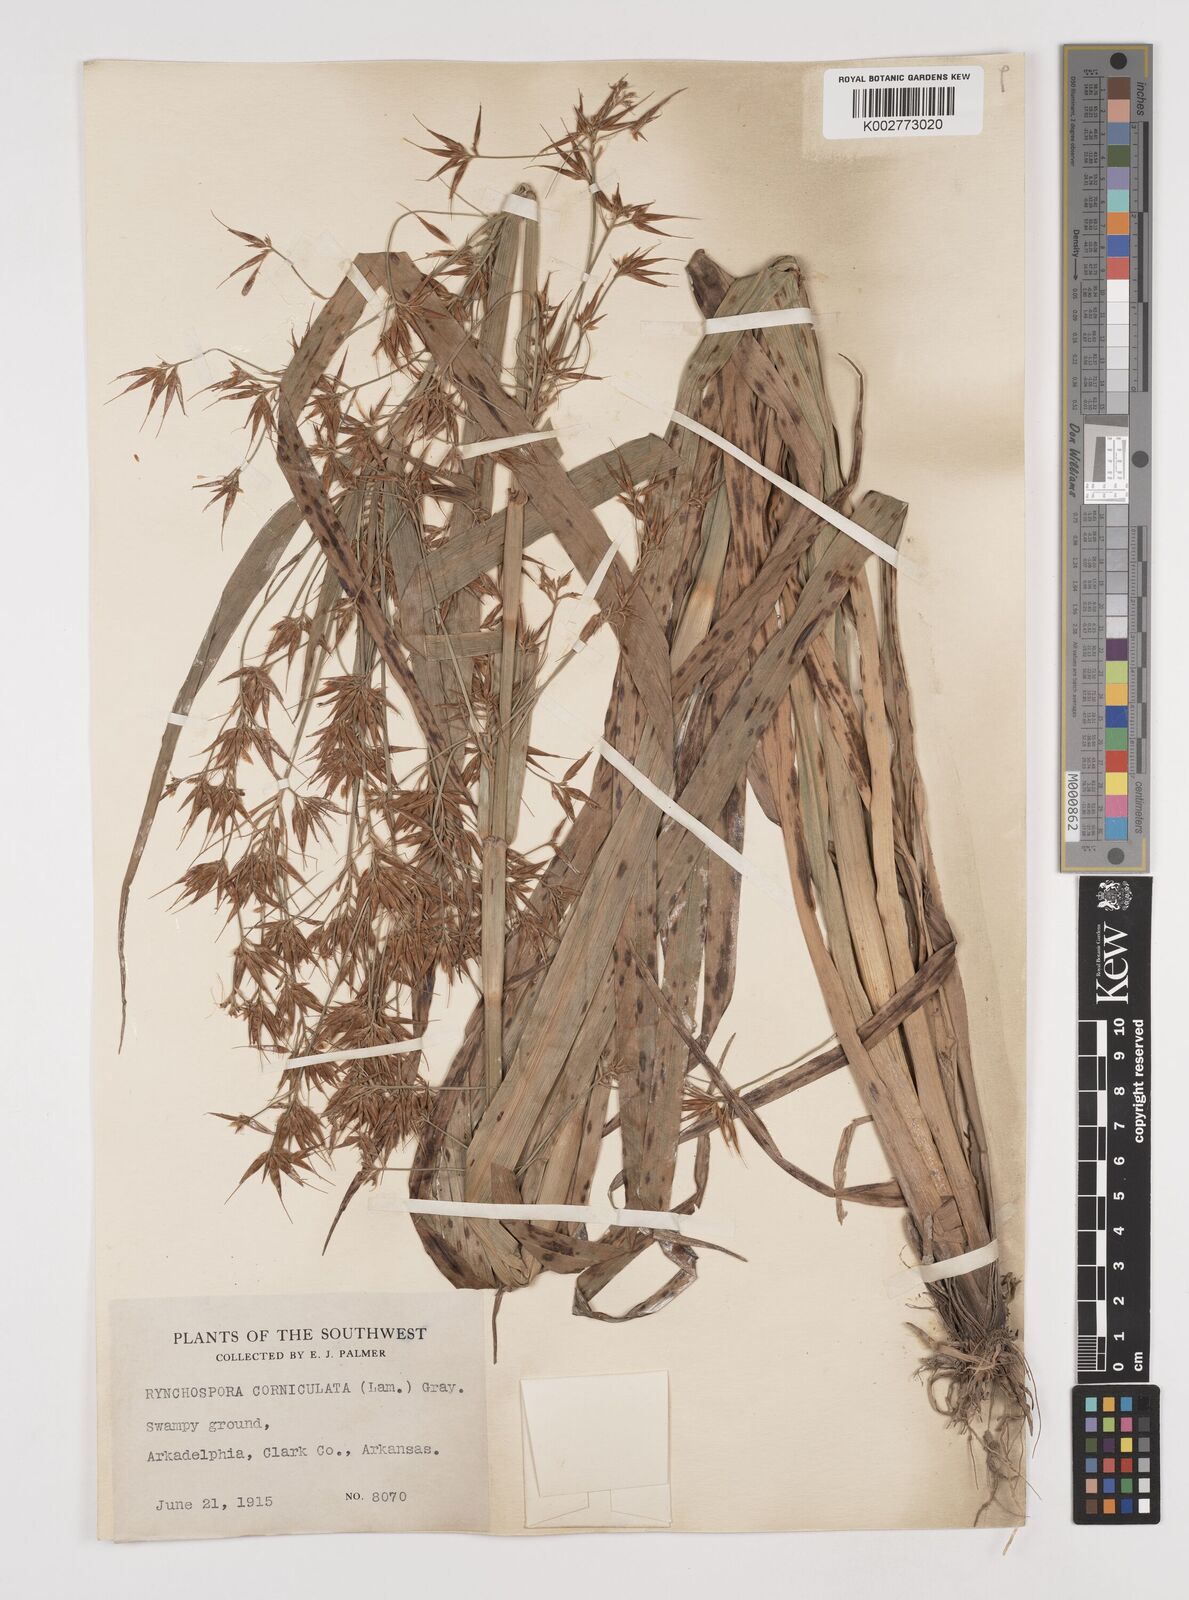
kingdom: Plantae
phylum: Tracheophyta
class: Liliopsida
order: Poales
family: Cyperaceae
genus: Rhynchospora
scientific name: Rhynchospora corniculata
